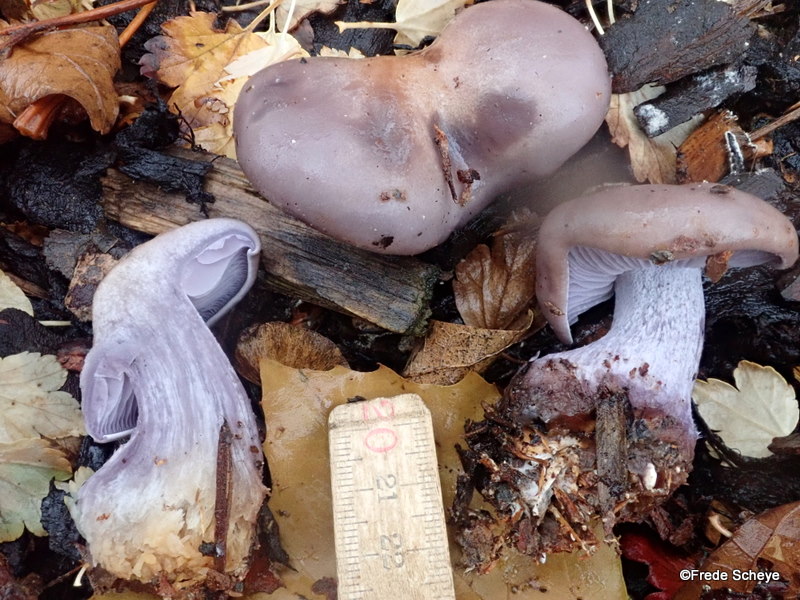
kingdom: Fungi
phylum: Basidiomycota
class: Agaricomycetes
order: Agaricales
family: Tricholomataceae
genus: Lepista
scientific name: Lepista nuda
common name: violet hekseringshat
